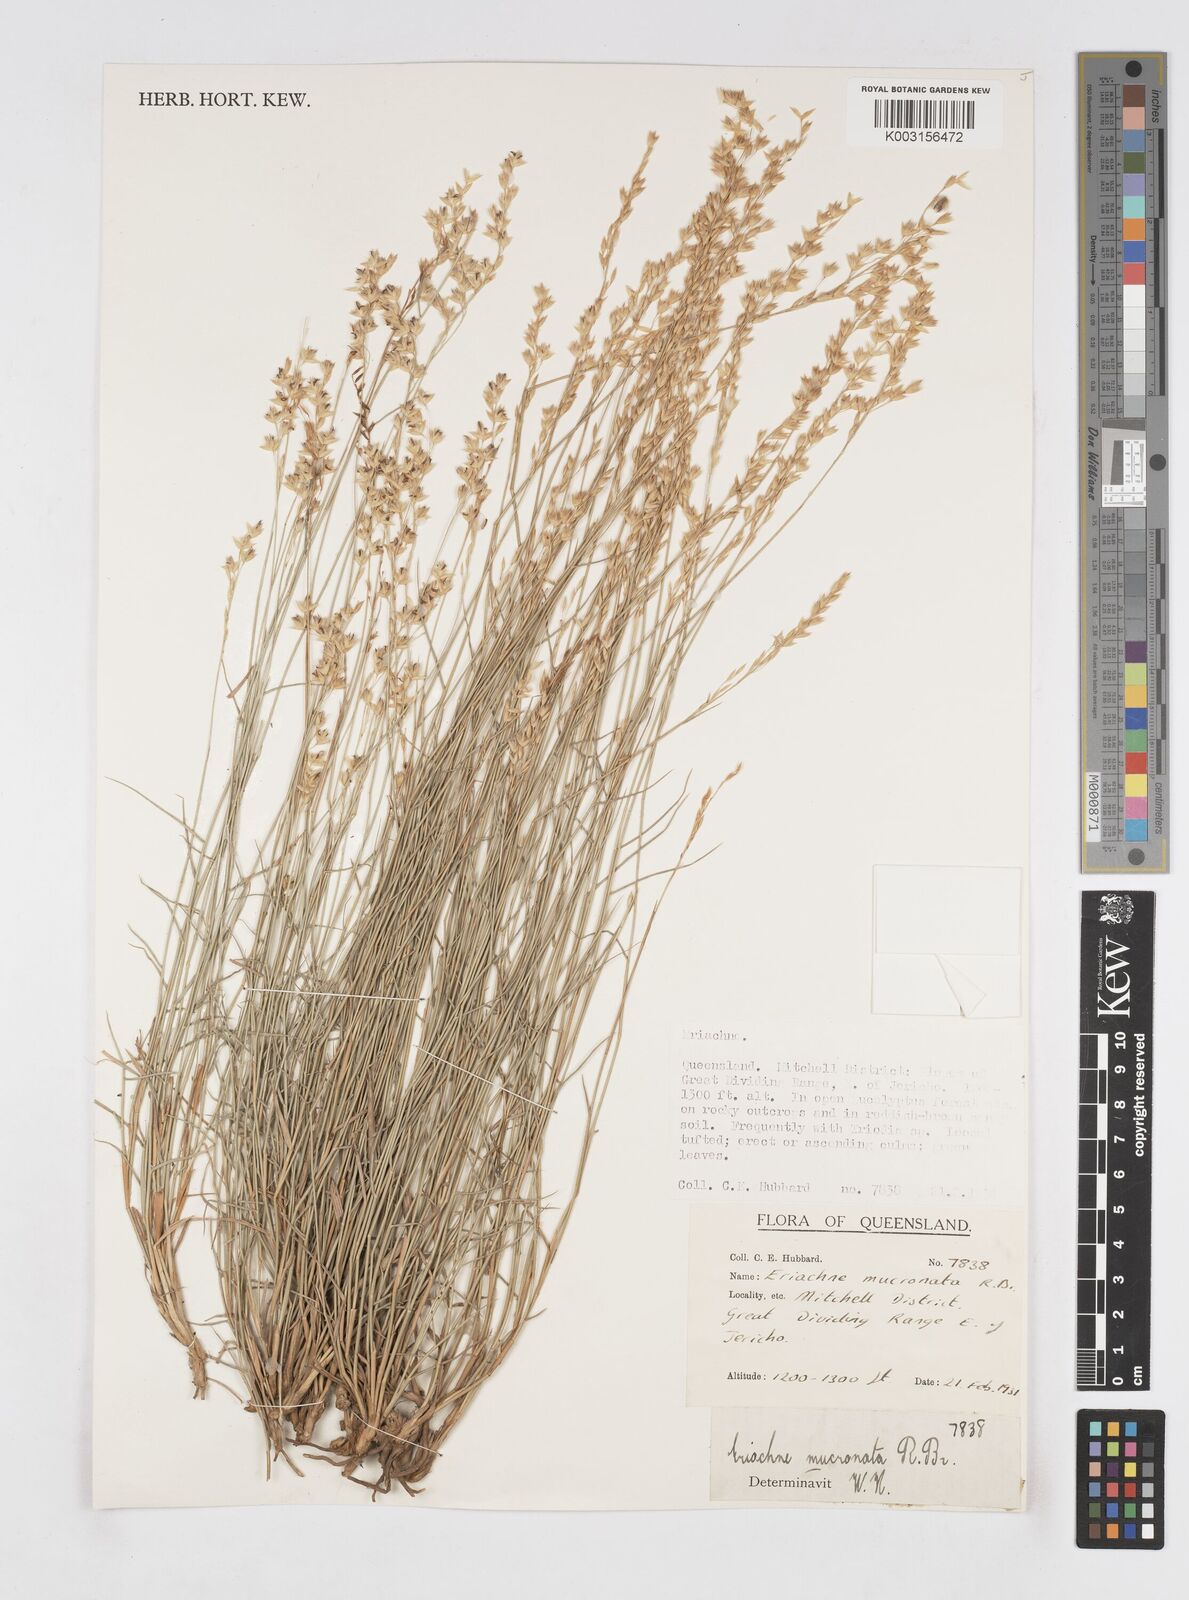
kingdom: Plantae
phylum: Tracheophyta
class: Liliopsida
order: Poales
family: Poaceae
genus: Eriachne
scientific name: Eriachne mucronata
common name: Mountain wanderrie grass
